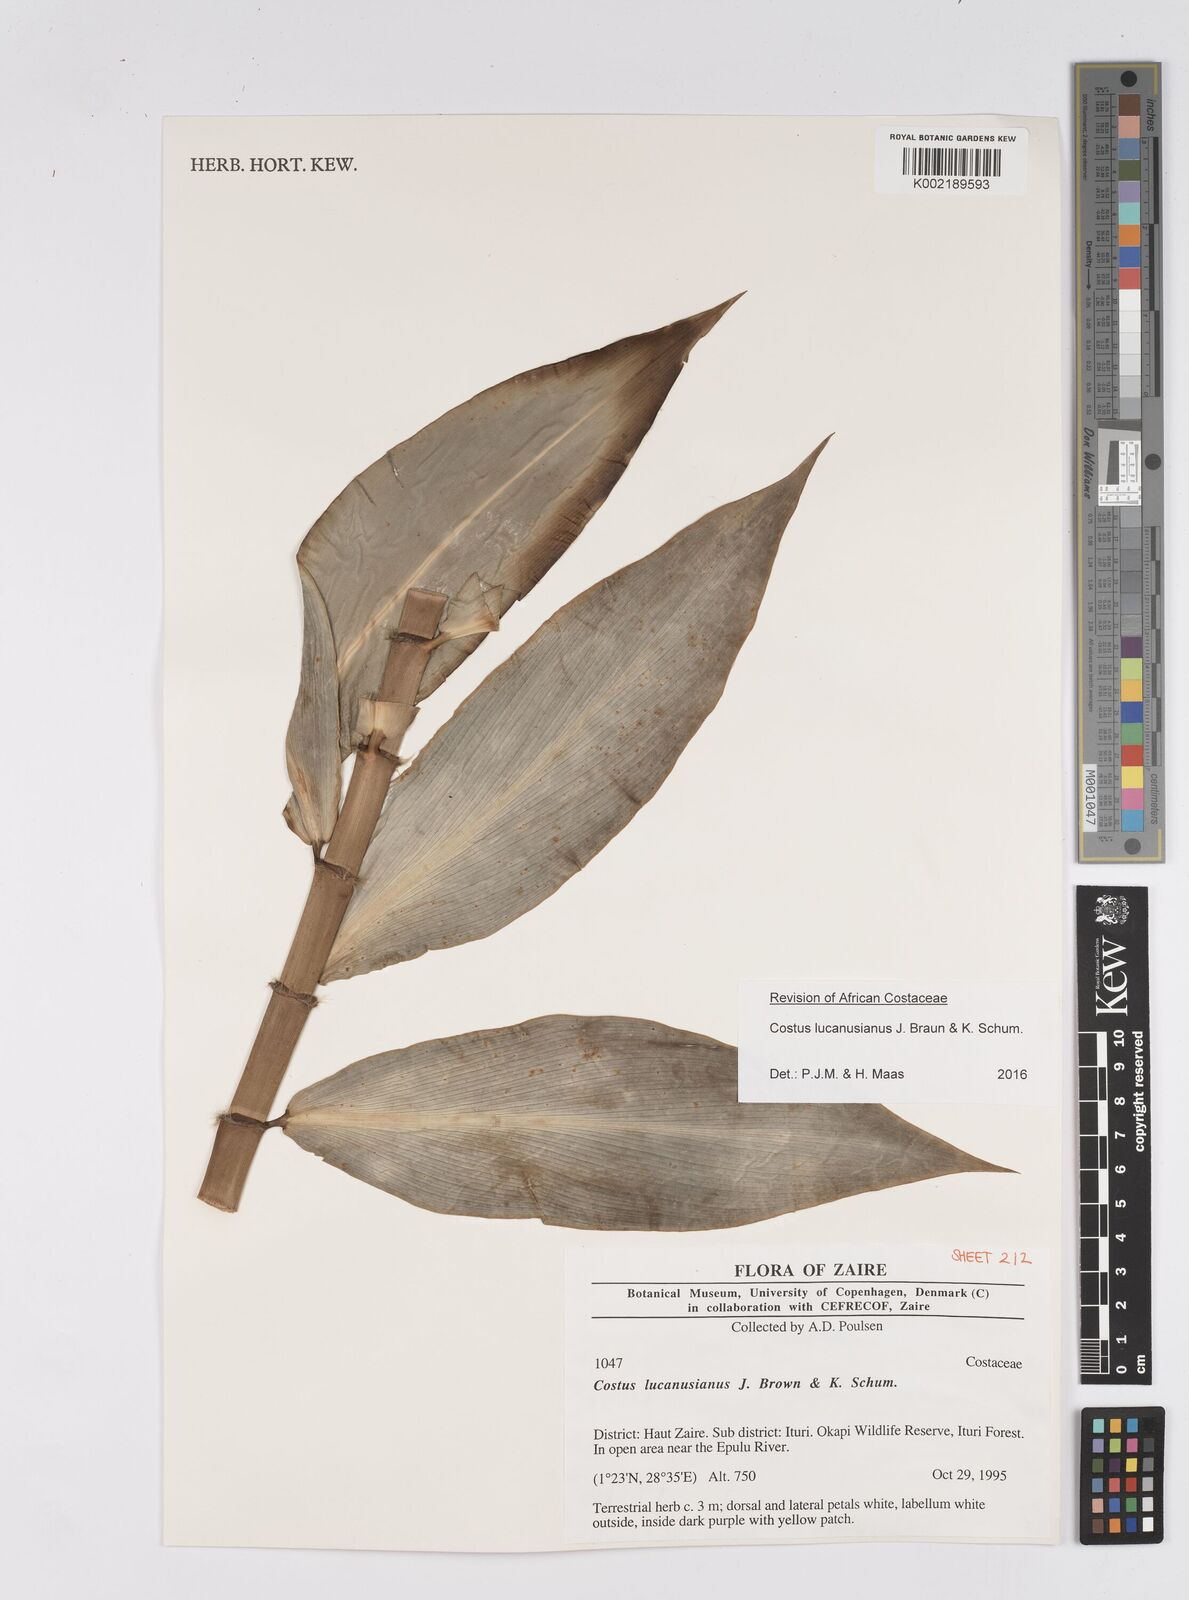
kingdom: Plantae
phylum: Tracheophyta
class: Liliopsida
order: Zingiberales
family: Costaceae
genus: Costus
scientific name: Costus lucanusianus
